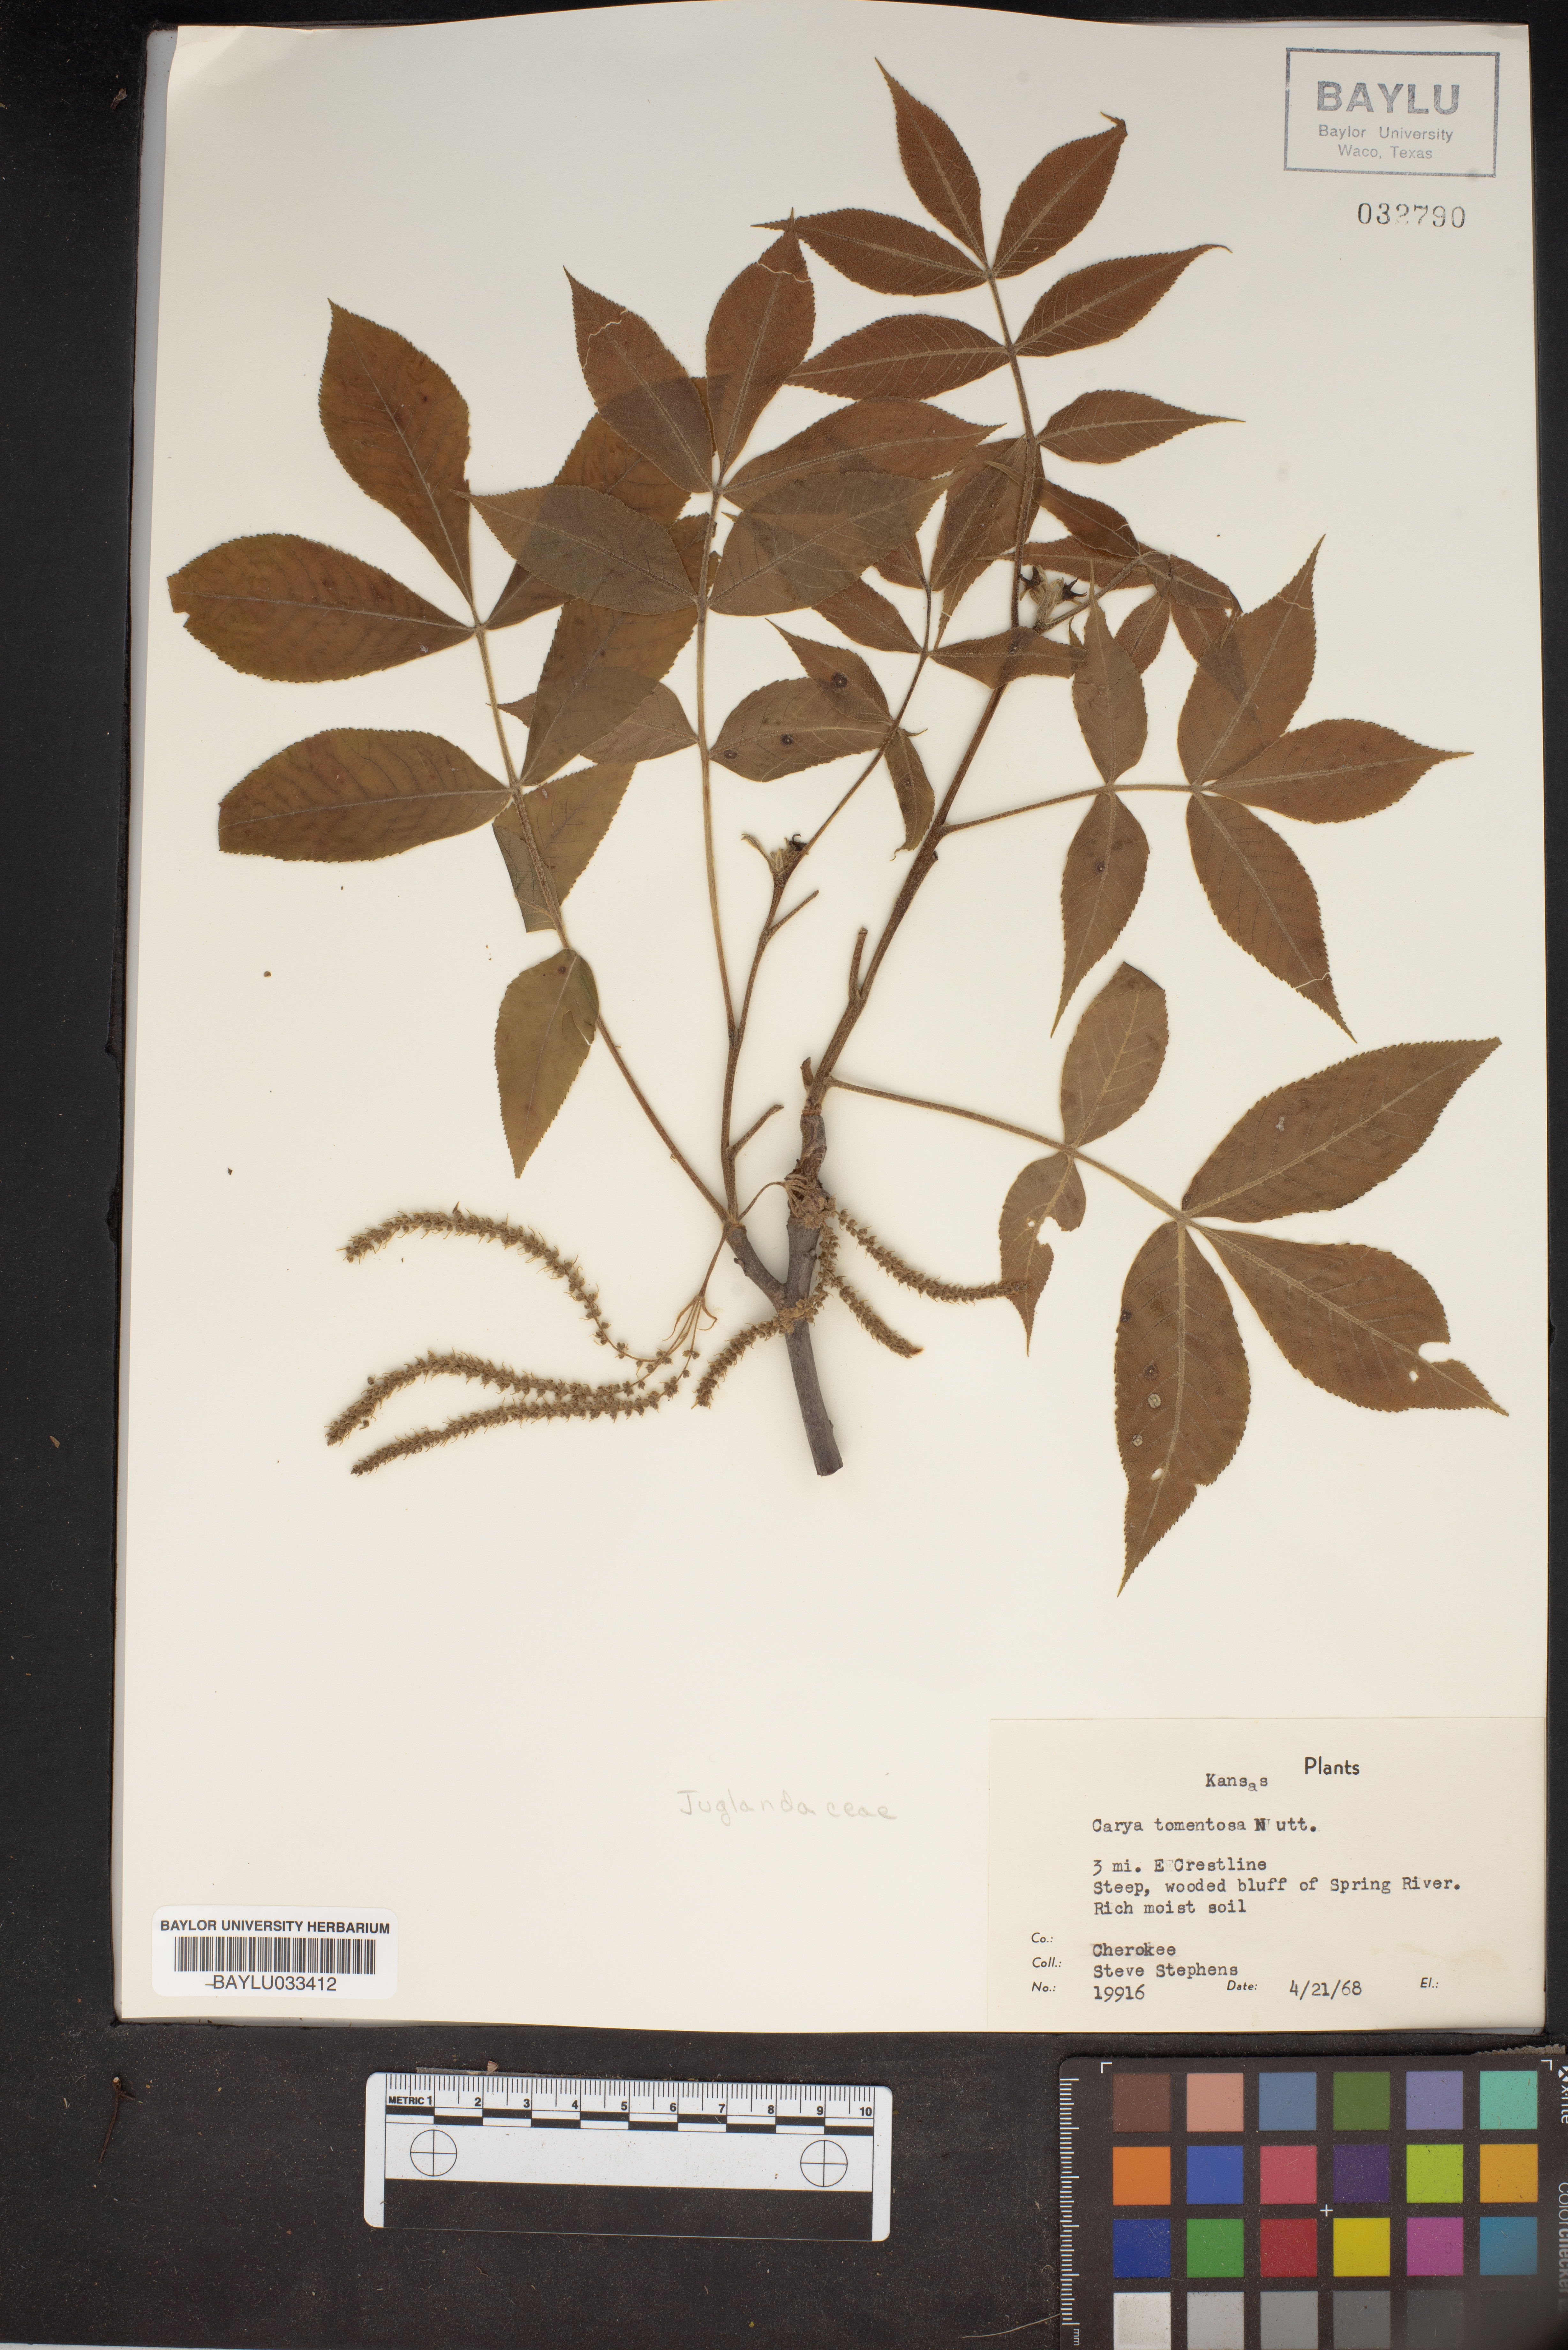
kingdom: Plantae
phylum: Tracheophyta
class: Magnoliopsida
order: Fagales
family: Juglandaceae
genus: Carya
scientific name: Carya alba
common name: Mockernut hickory
